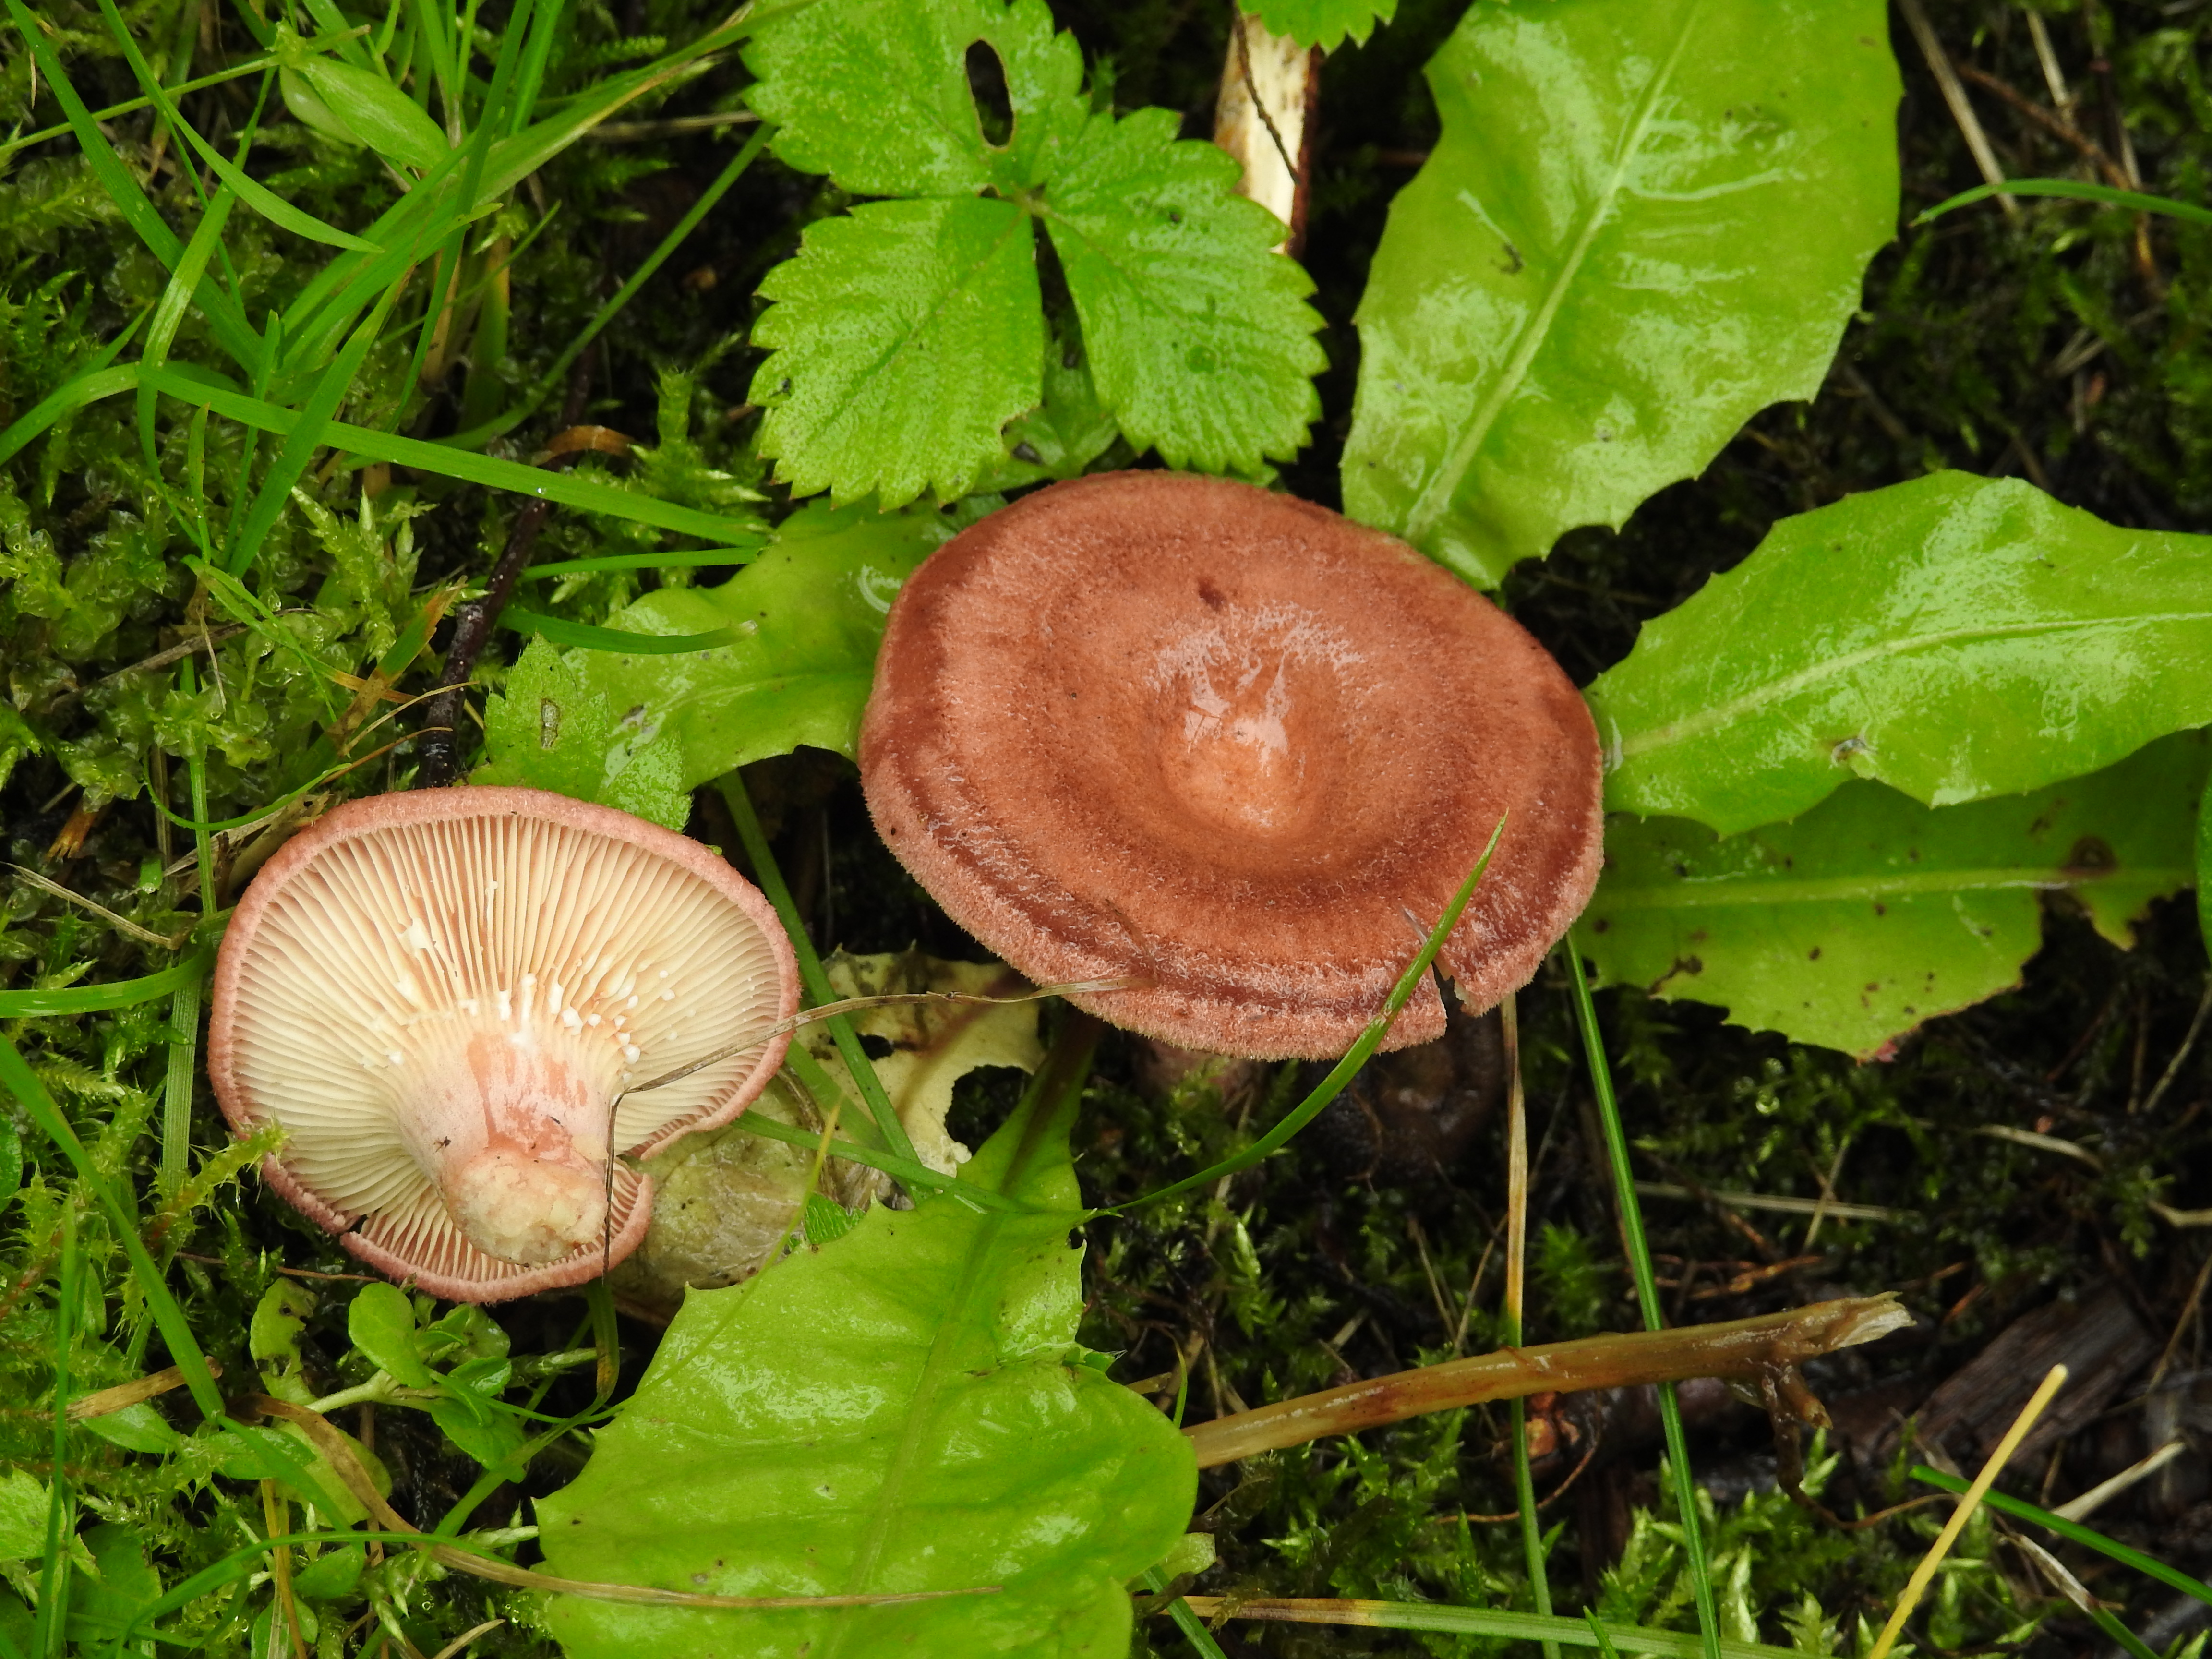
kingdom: Fungi
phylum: Basidiomycota
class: Agaricomycetes
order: Russulales
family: Russulaceae
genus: Lactarius
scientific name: Lactarius spinosulus
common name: Lilacscale milkcap
